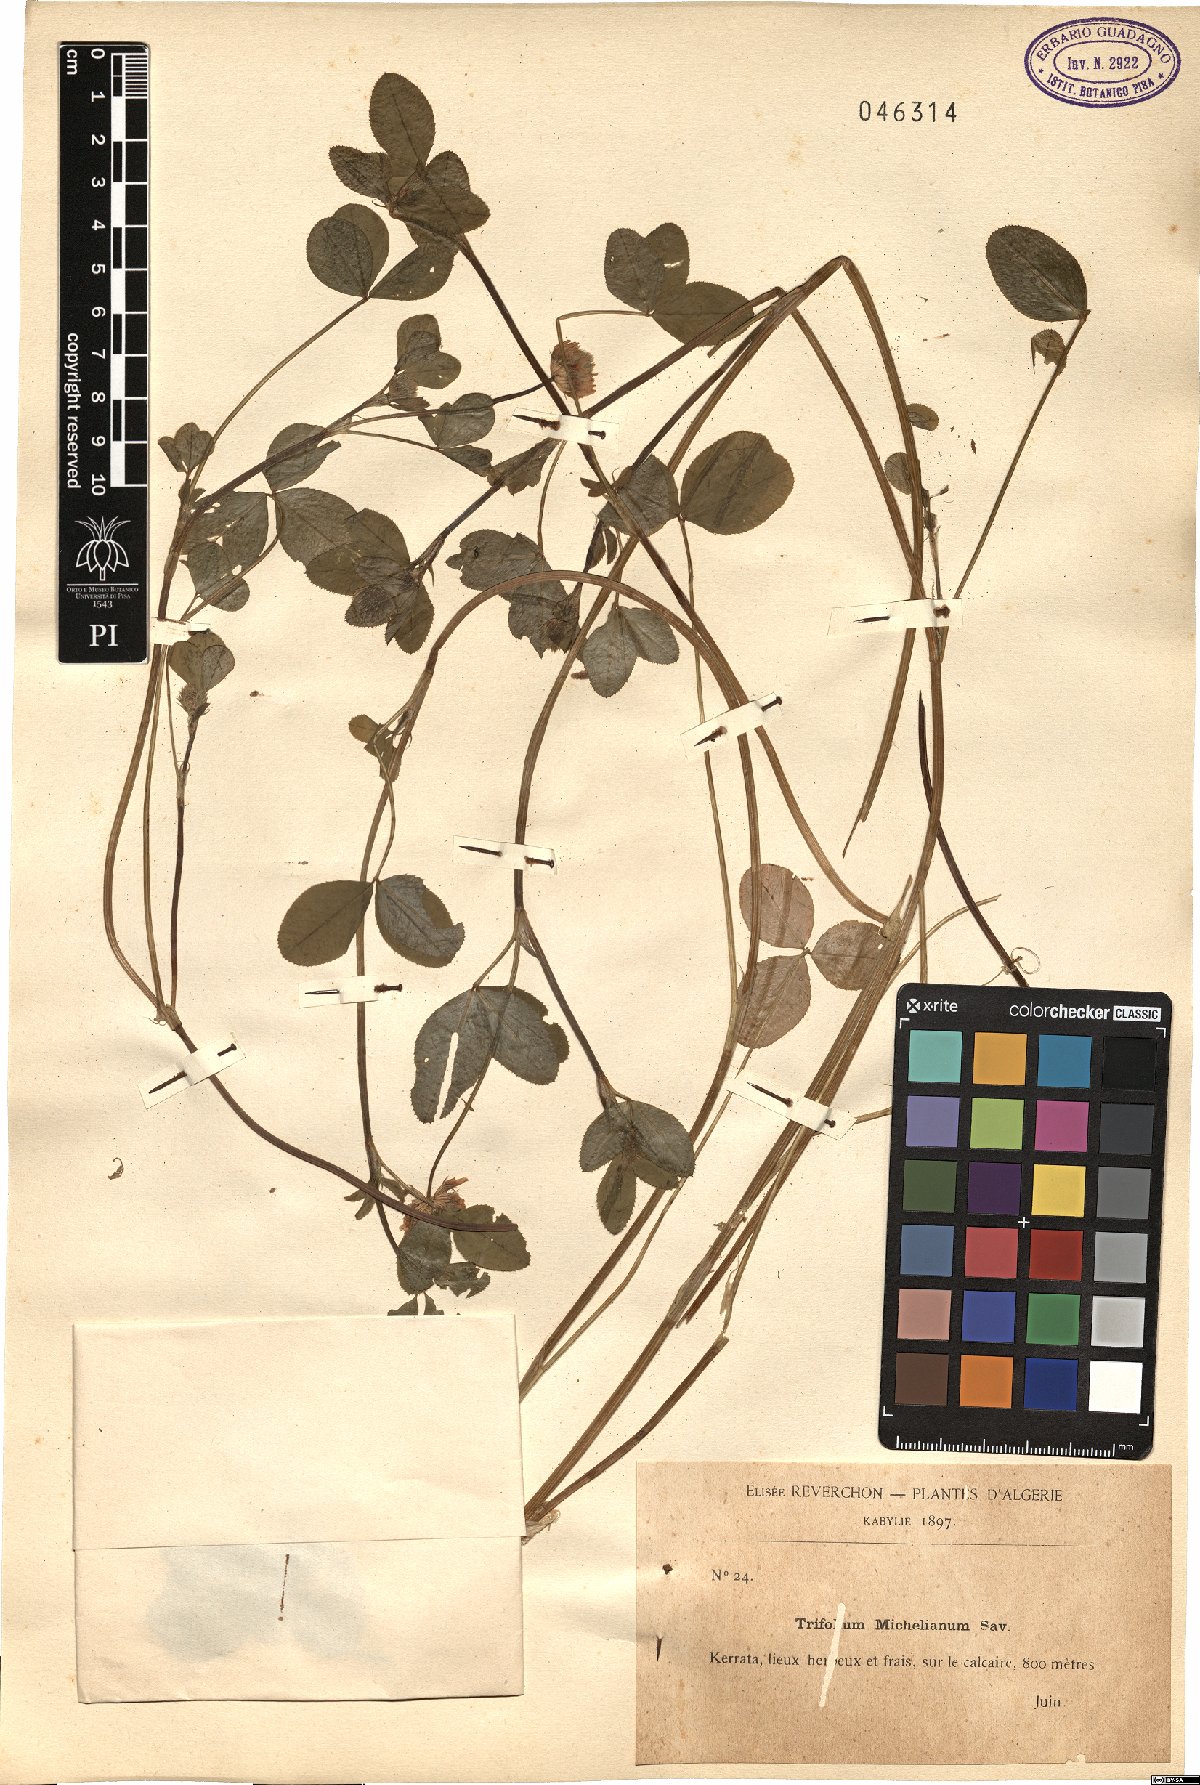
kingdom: Plantae
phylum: Tracheophyta
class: Magnoliopsida
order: Fabales
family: Fabaceae
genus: Trifolium
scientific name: Trifolium michelianum
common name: Bigflower clover
